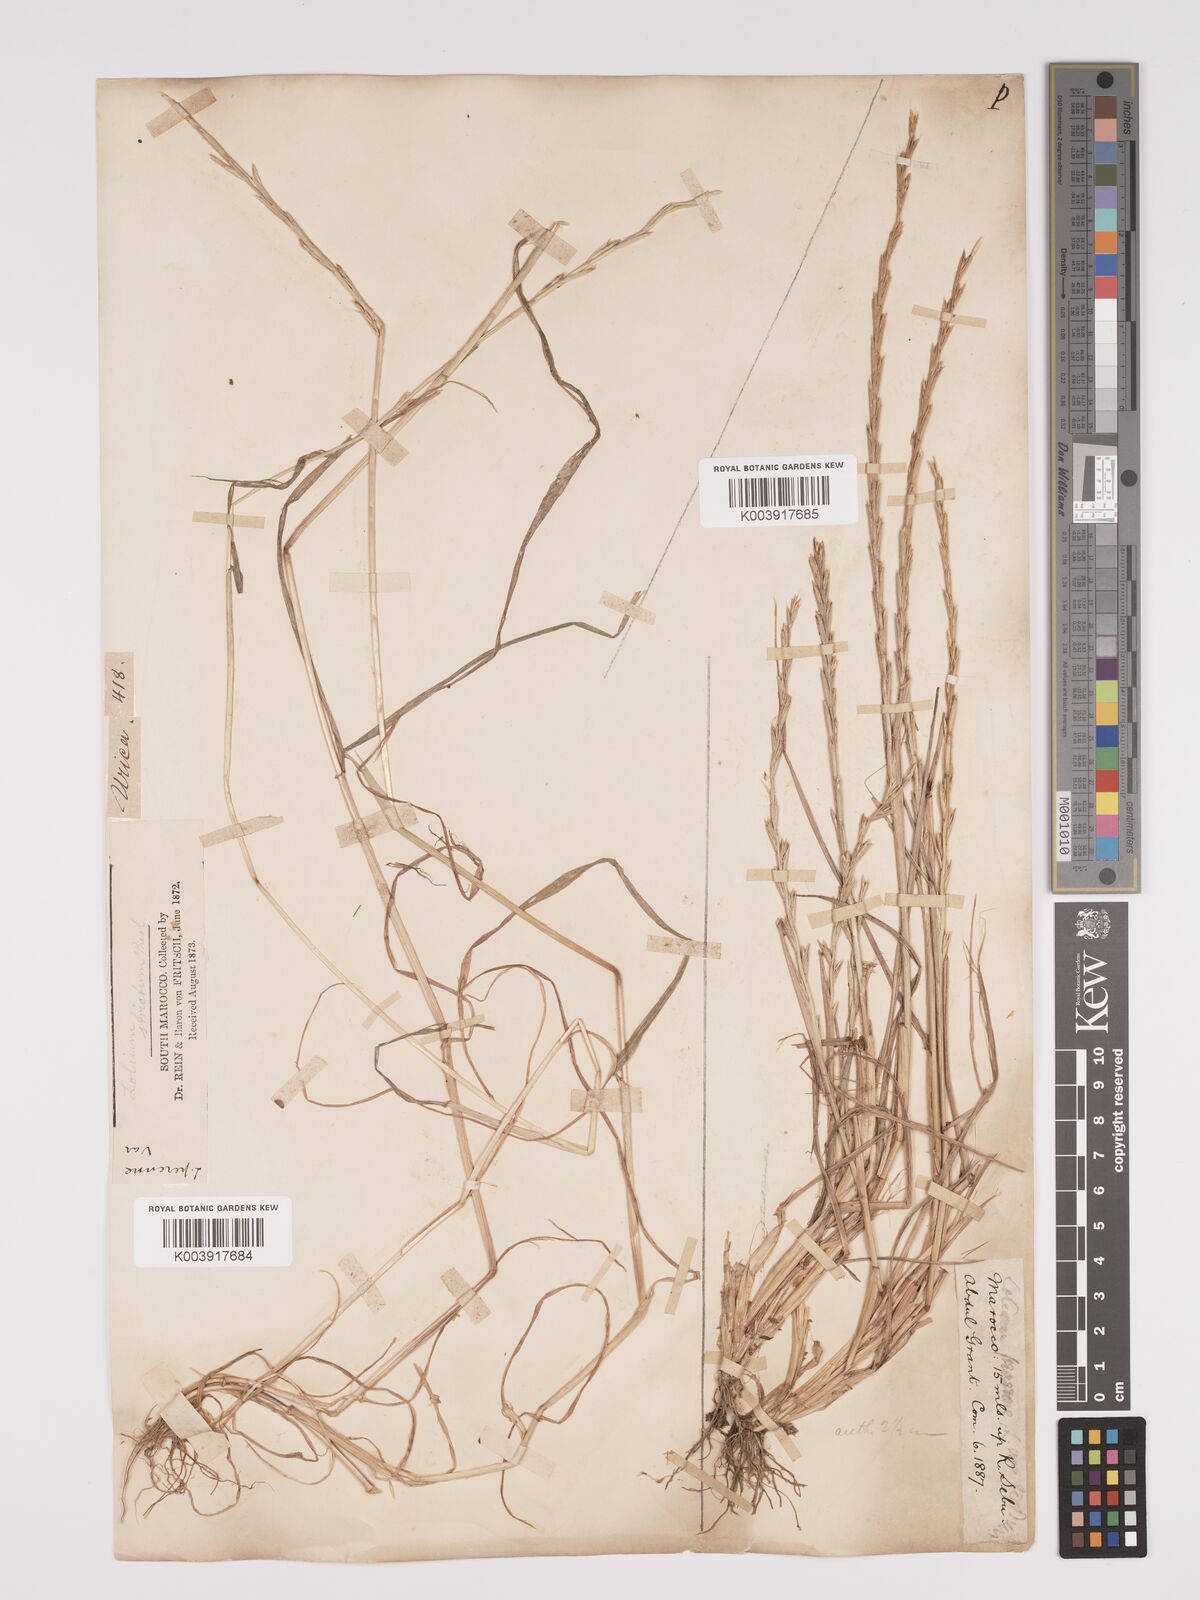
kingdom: Plantae
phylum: Tracheophyta
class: Liliopsida
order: Poales
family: Poaceae
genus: Lolium
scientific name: Lolium rigidum
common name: Wimmera ryegrass
